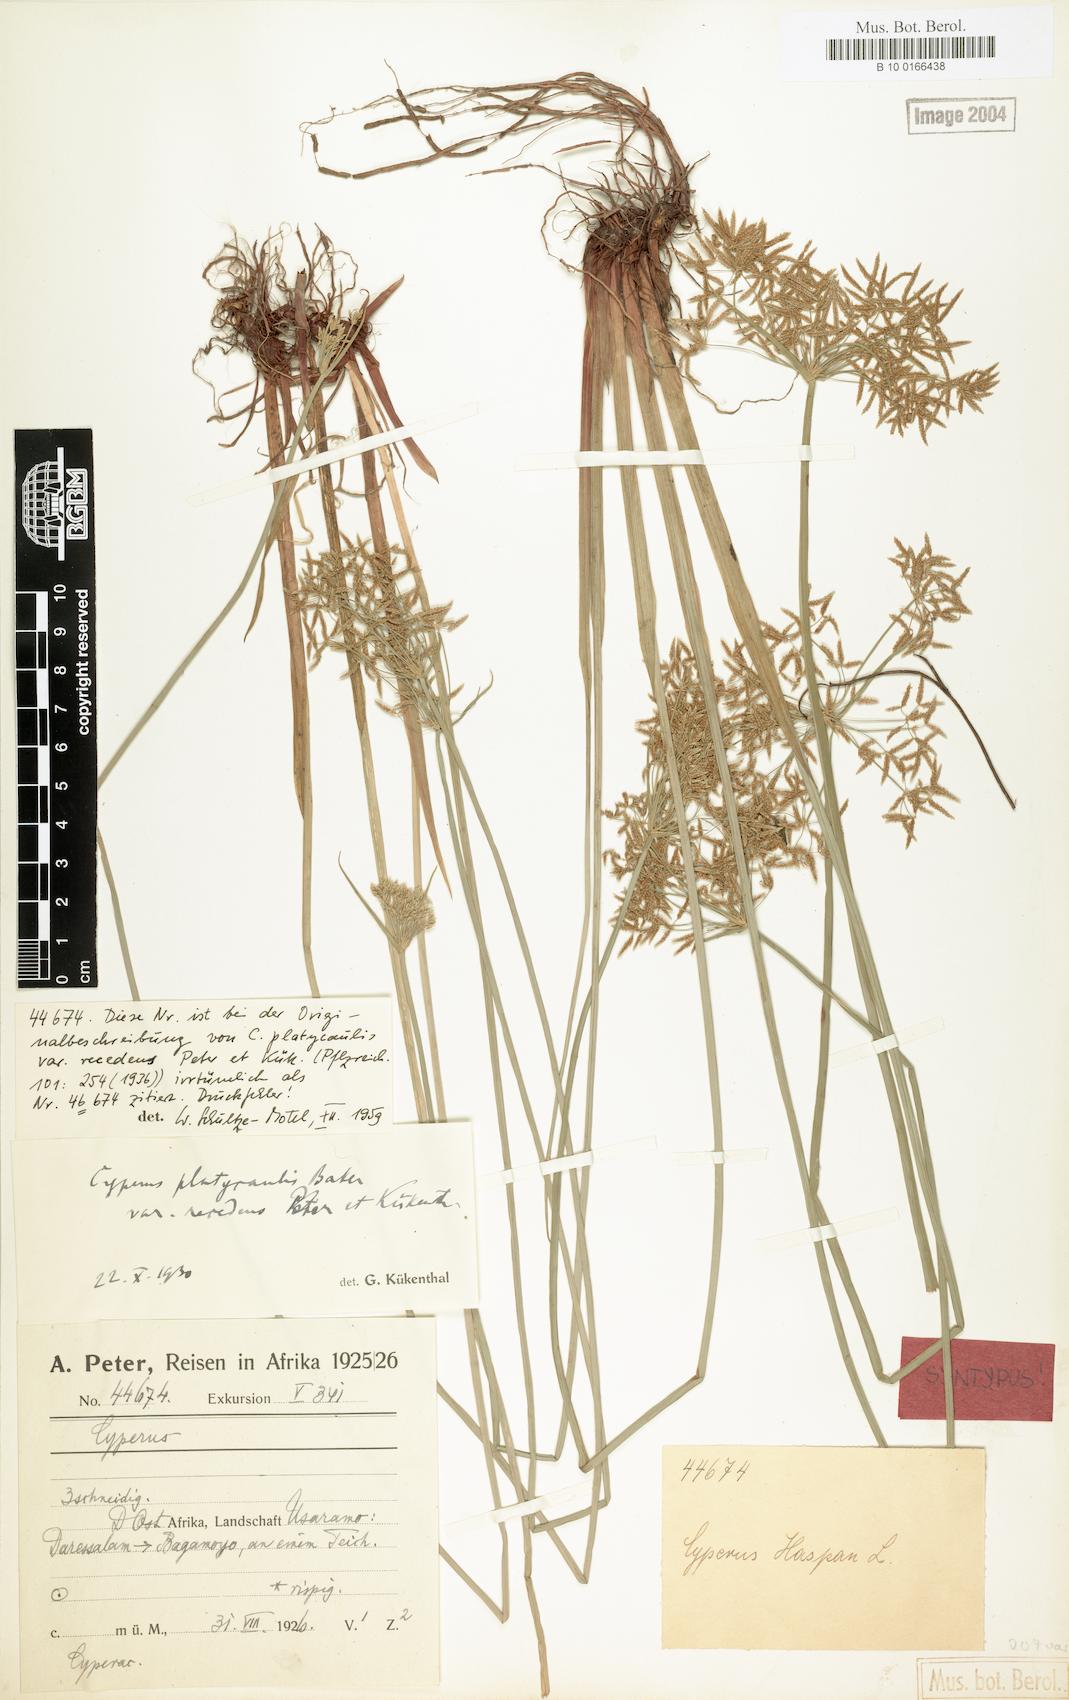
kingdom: Plantae
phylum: Tracheophyta
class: Liliopsida
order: Poales
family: Cyperaceae
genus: Cyperus
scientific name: Cyperus denudatus
